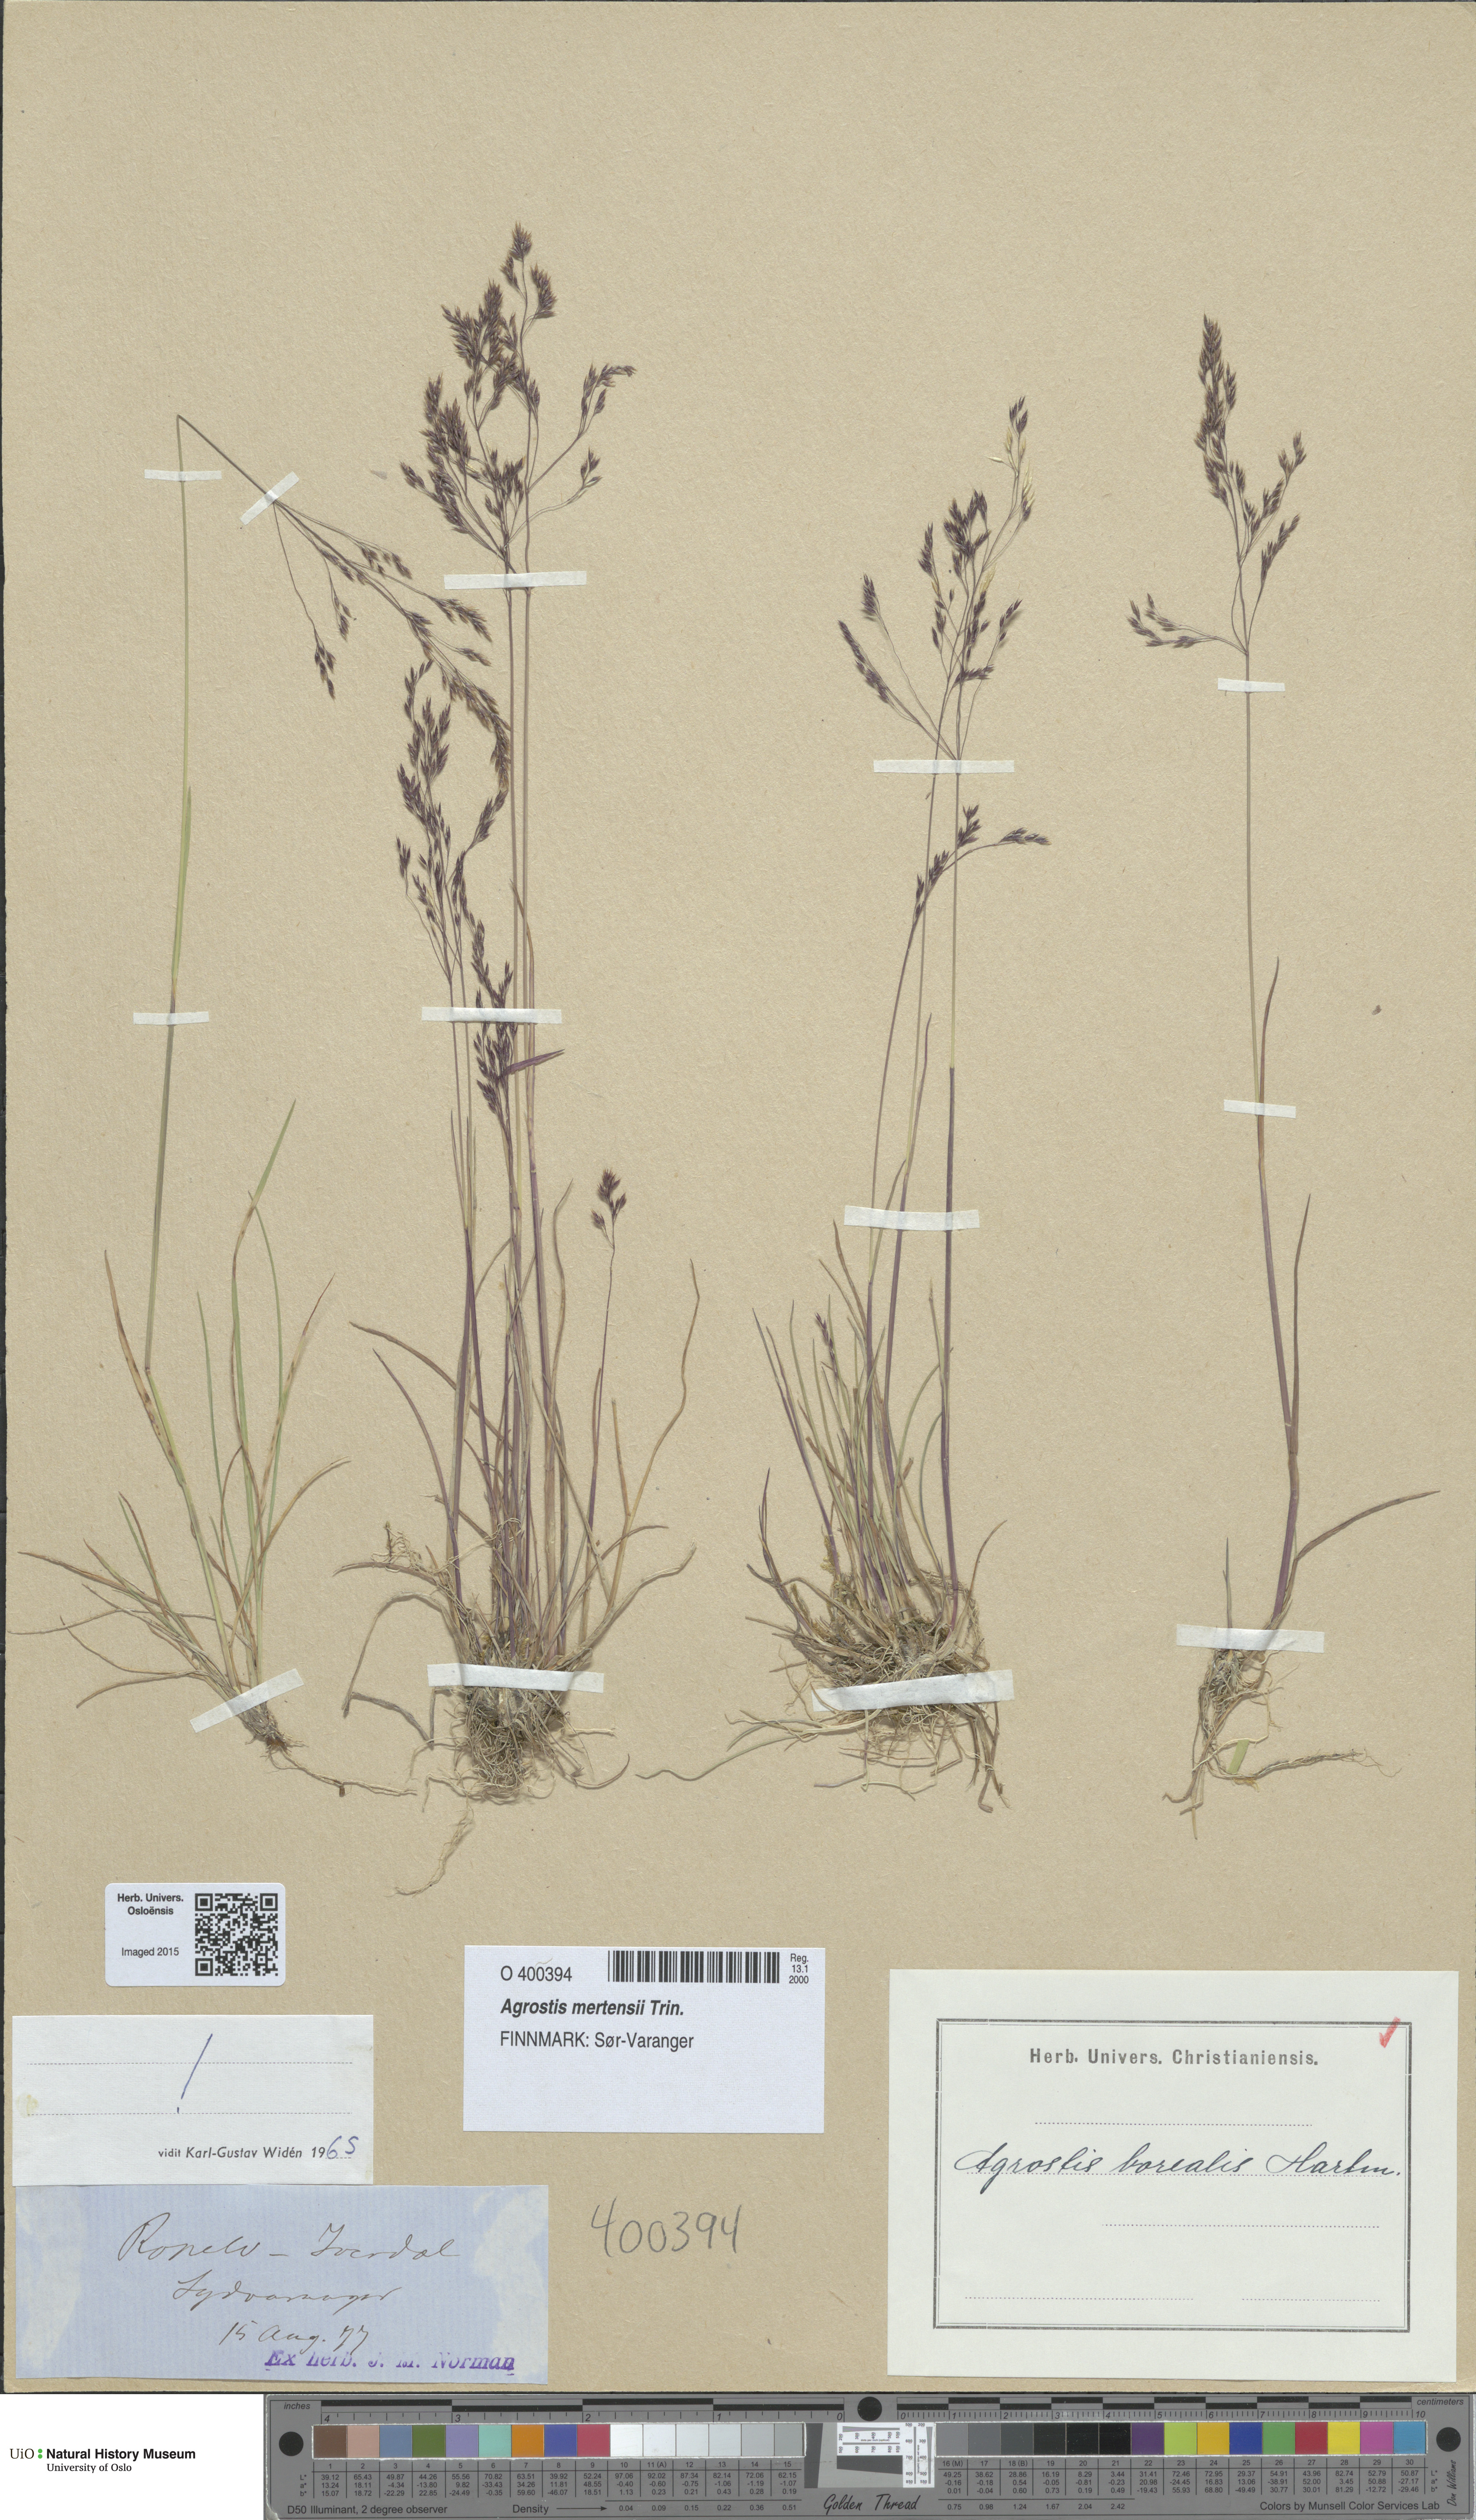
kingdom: Plantae
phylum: Tracheophyta
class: Liliopsida
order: Poales
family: Poaceae
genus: Agrostis
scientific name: Agrostis mertensii
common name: Northern bent
